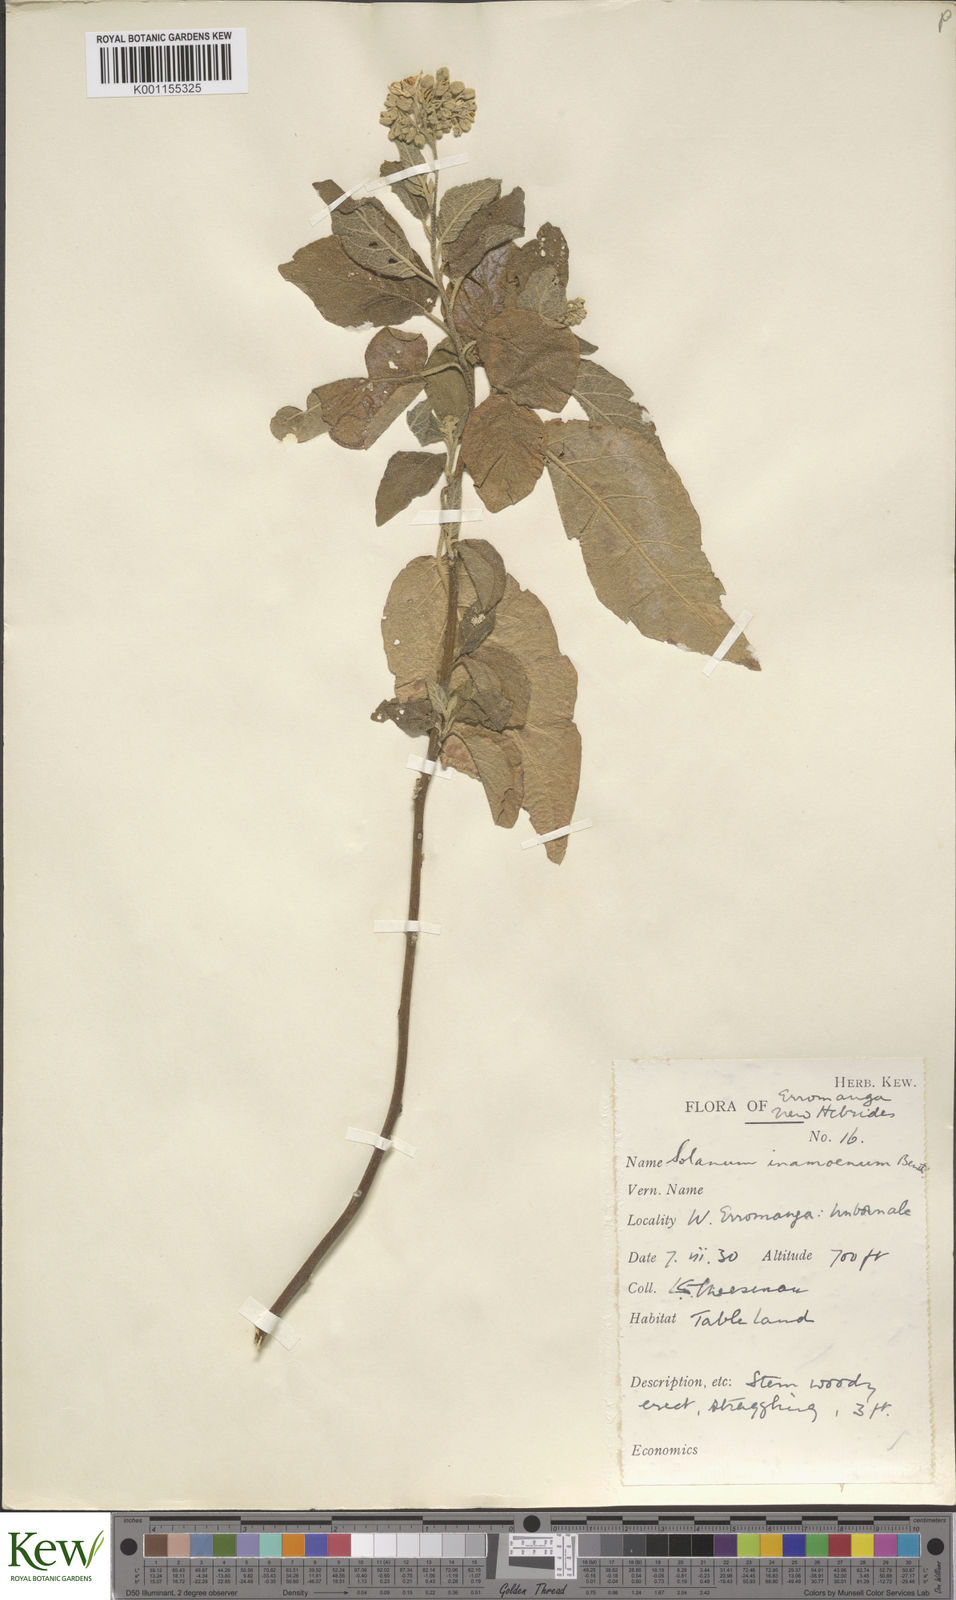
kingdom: Plantae
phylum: Tracheophyta
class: Magnoliopsida
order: Solanales
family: Solanaceae
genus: Solanum
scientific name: Solanum inamoenum
